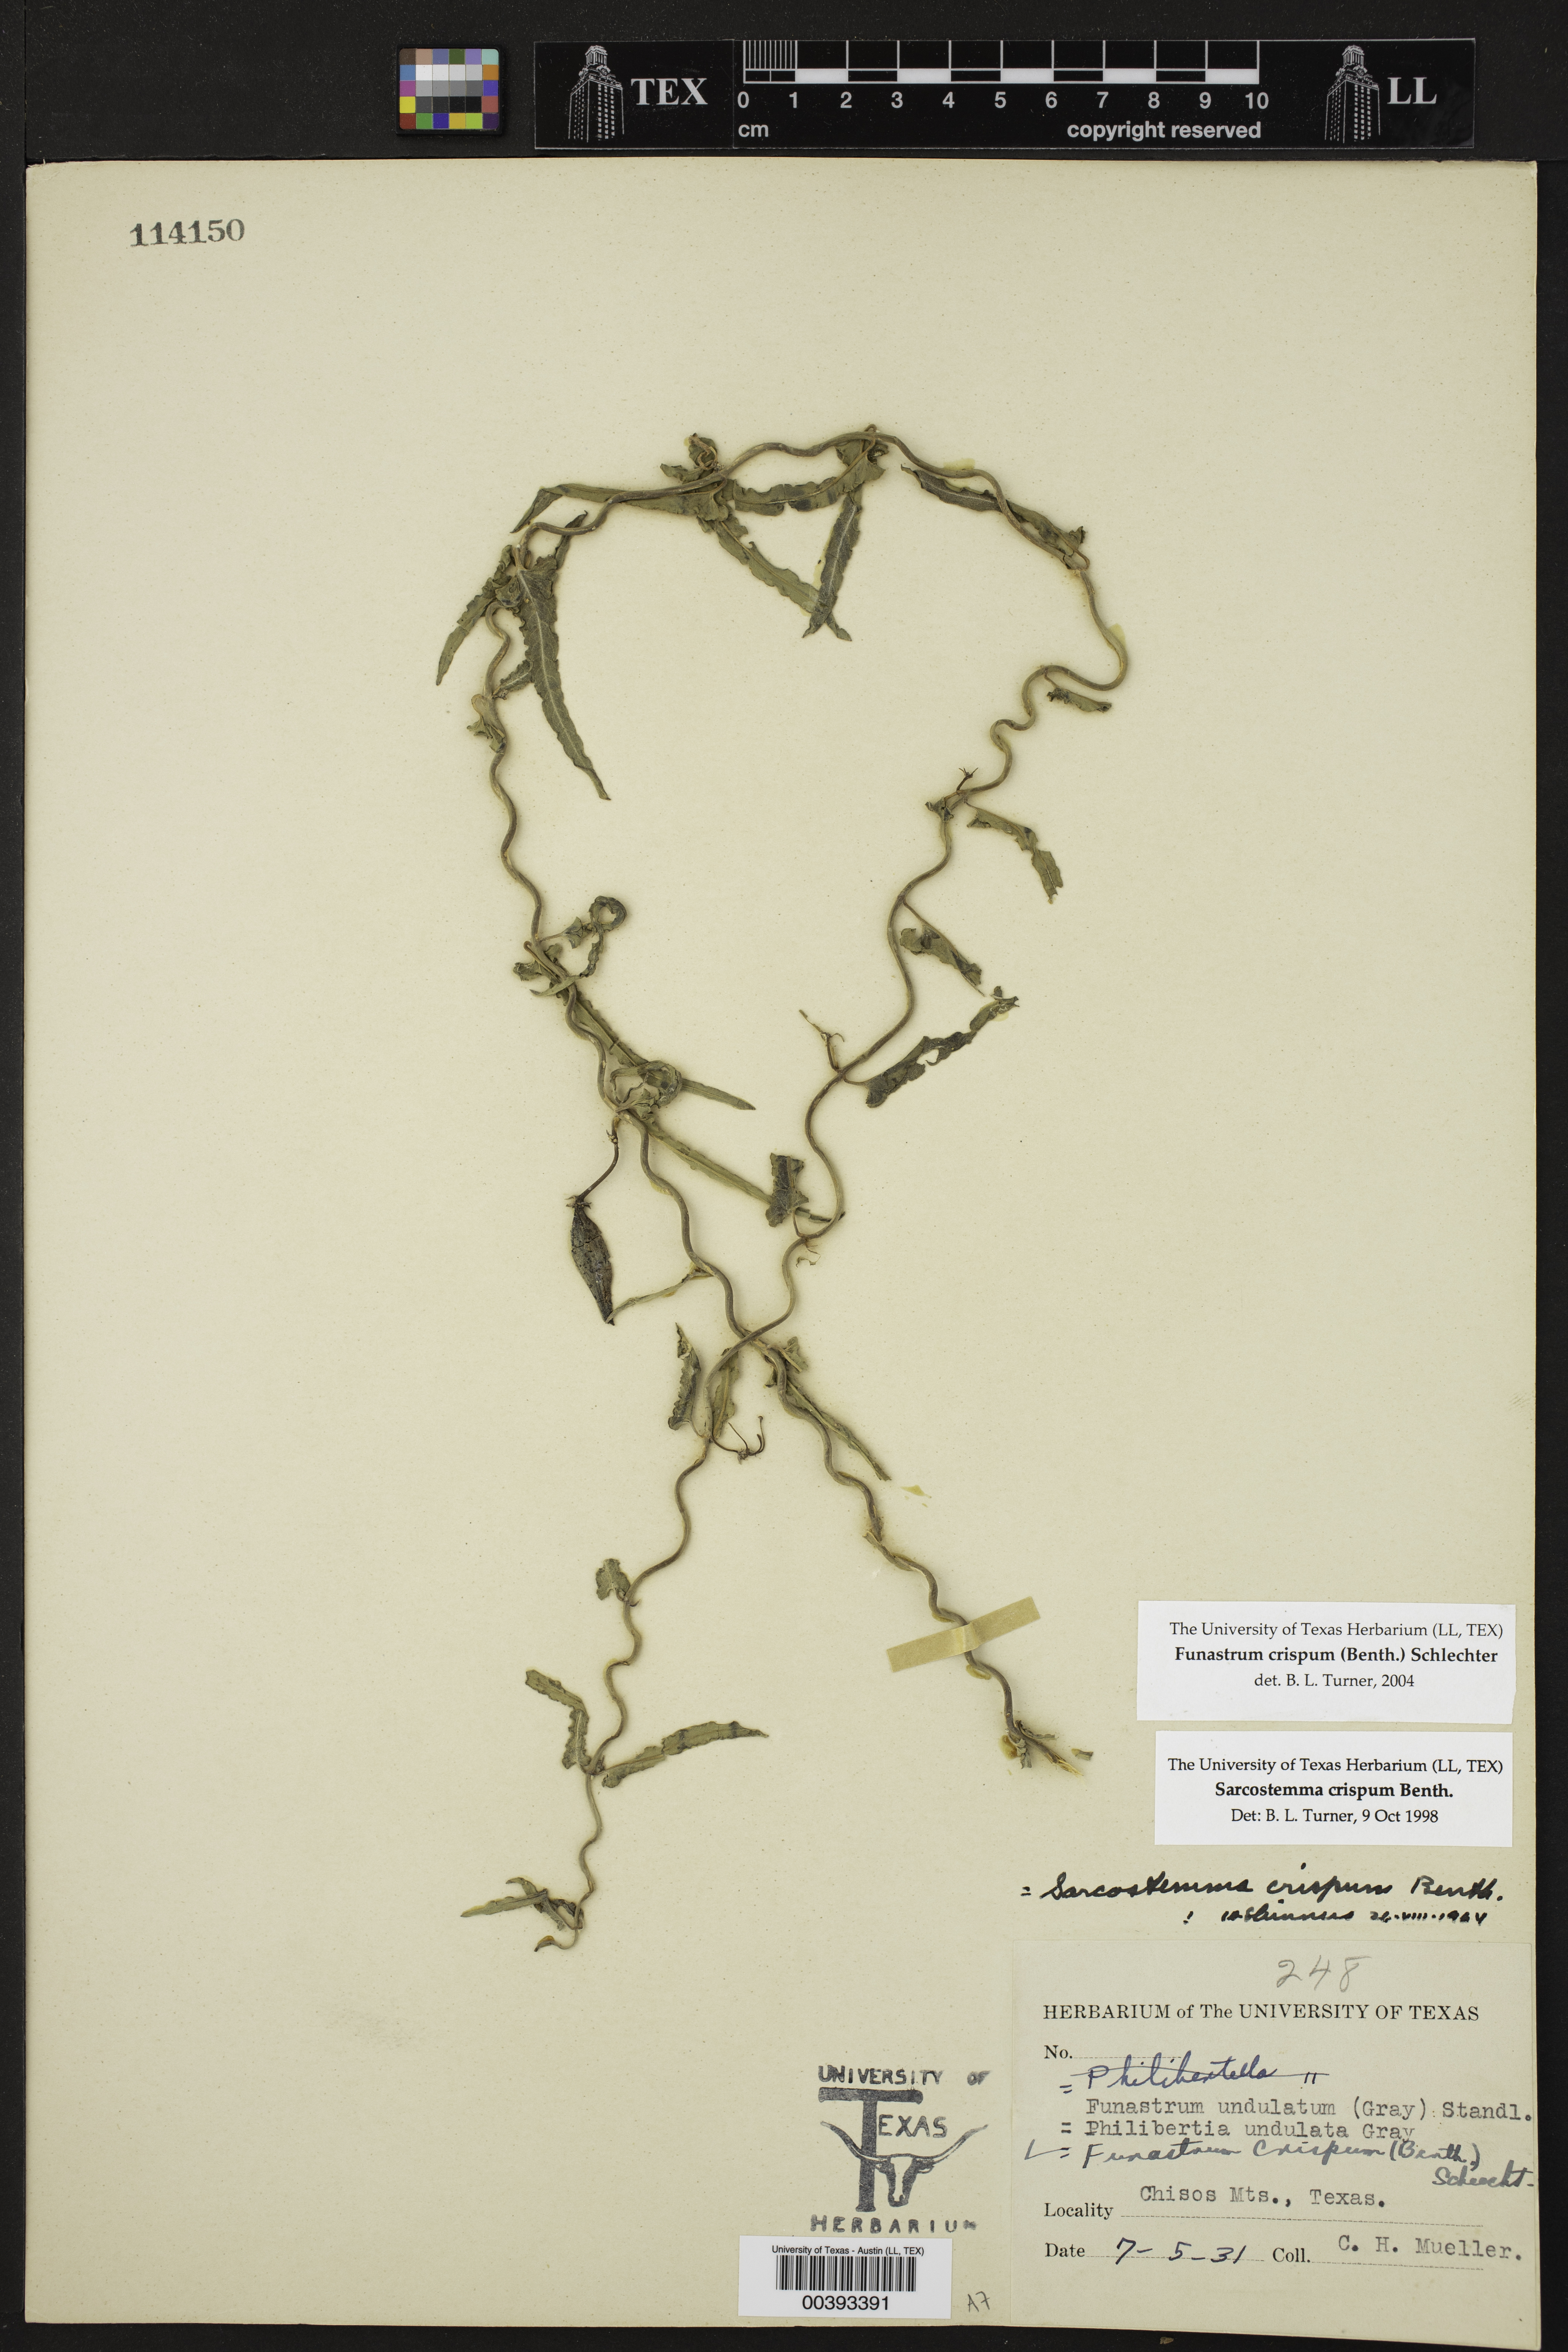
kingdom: Plantae
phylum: Tracheophyta
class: Magnoliopsida
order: Gentianales
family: Apocynaceae
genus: Funastrum
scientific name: Funastrum crispum
